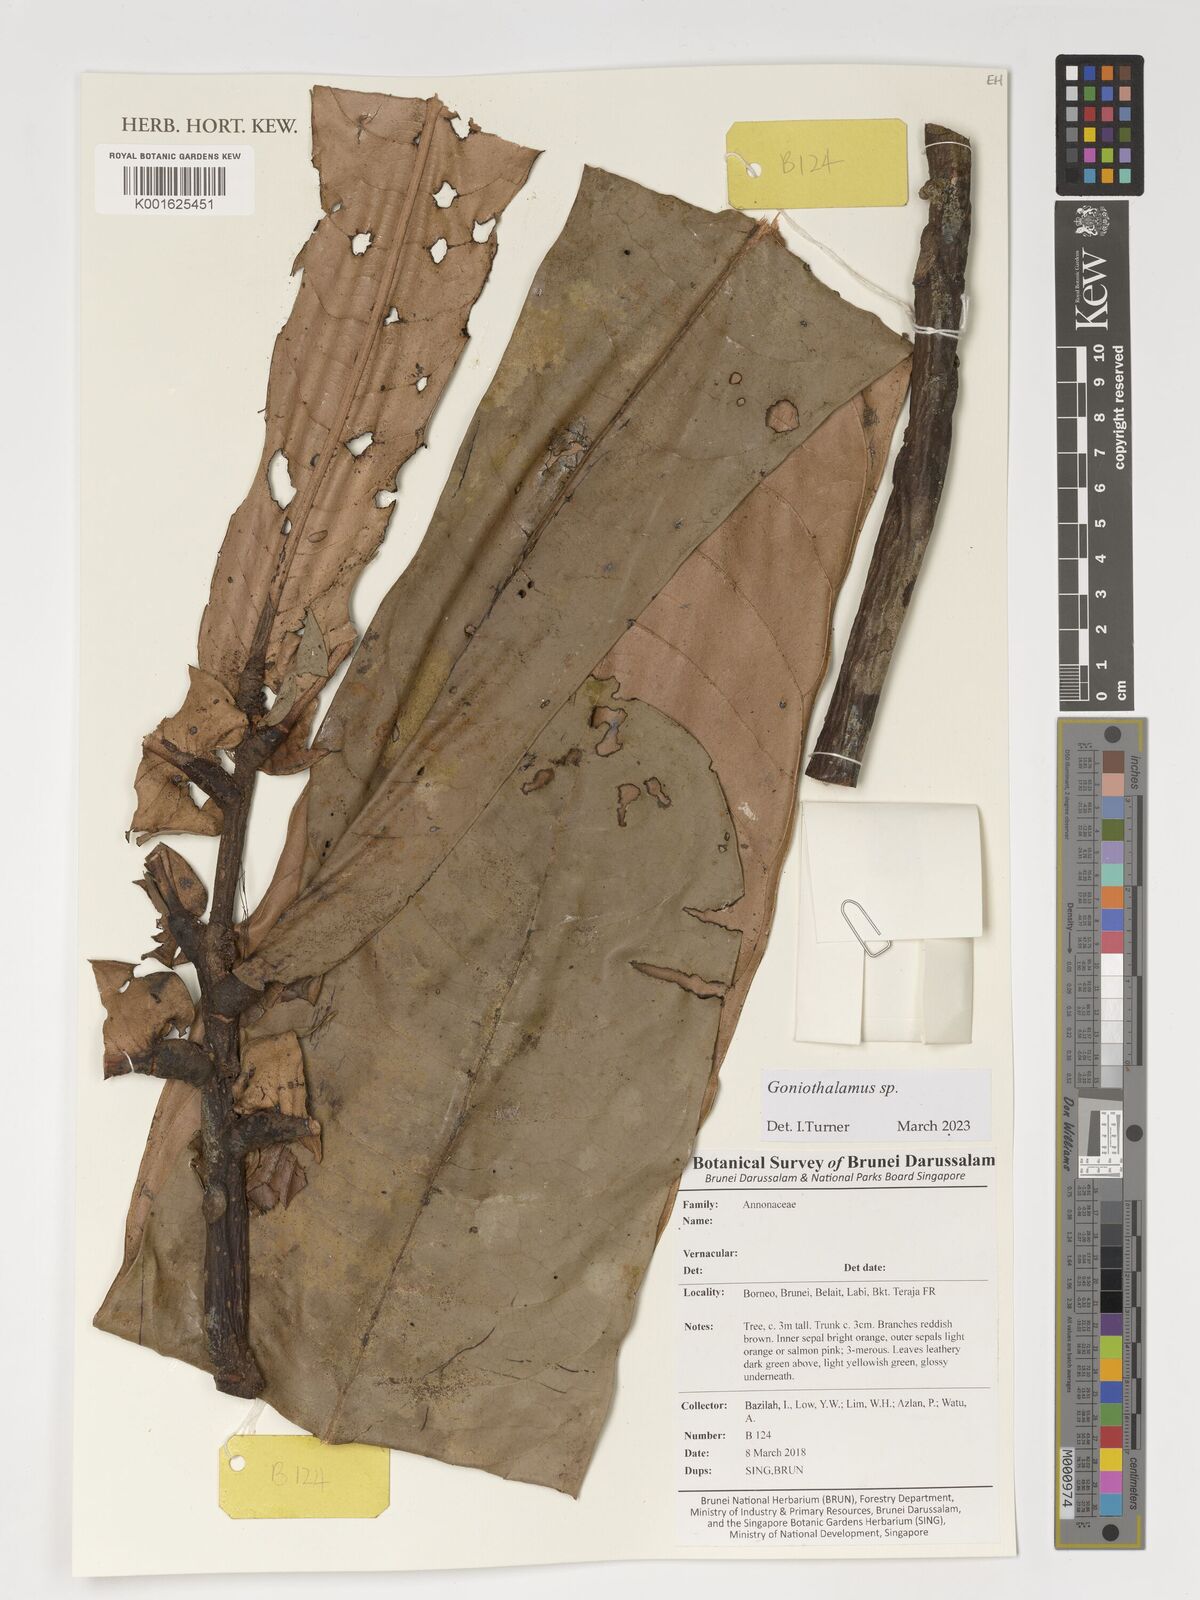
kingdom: Plantae
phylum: Tracheophyta
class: Magnoliopsida
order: Magnoliales
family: Annonaceae
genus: Goniothalamus
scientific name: Goniothalamus
